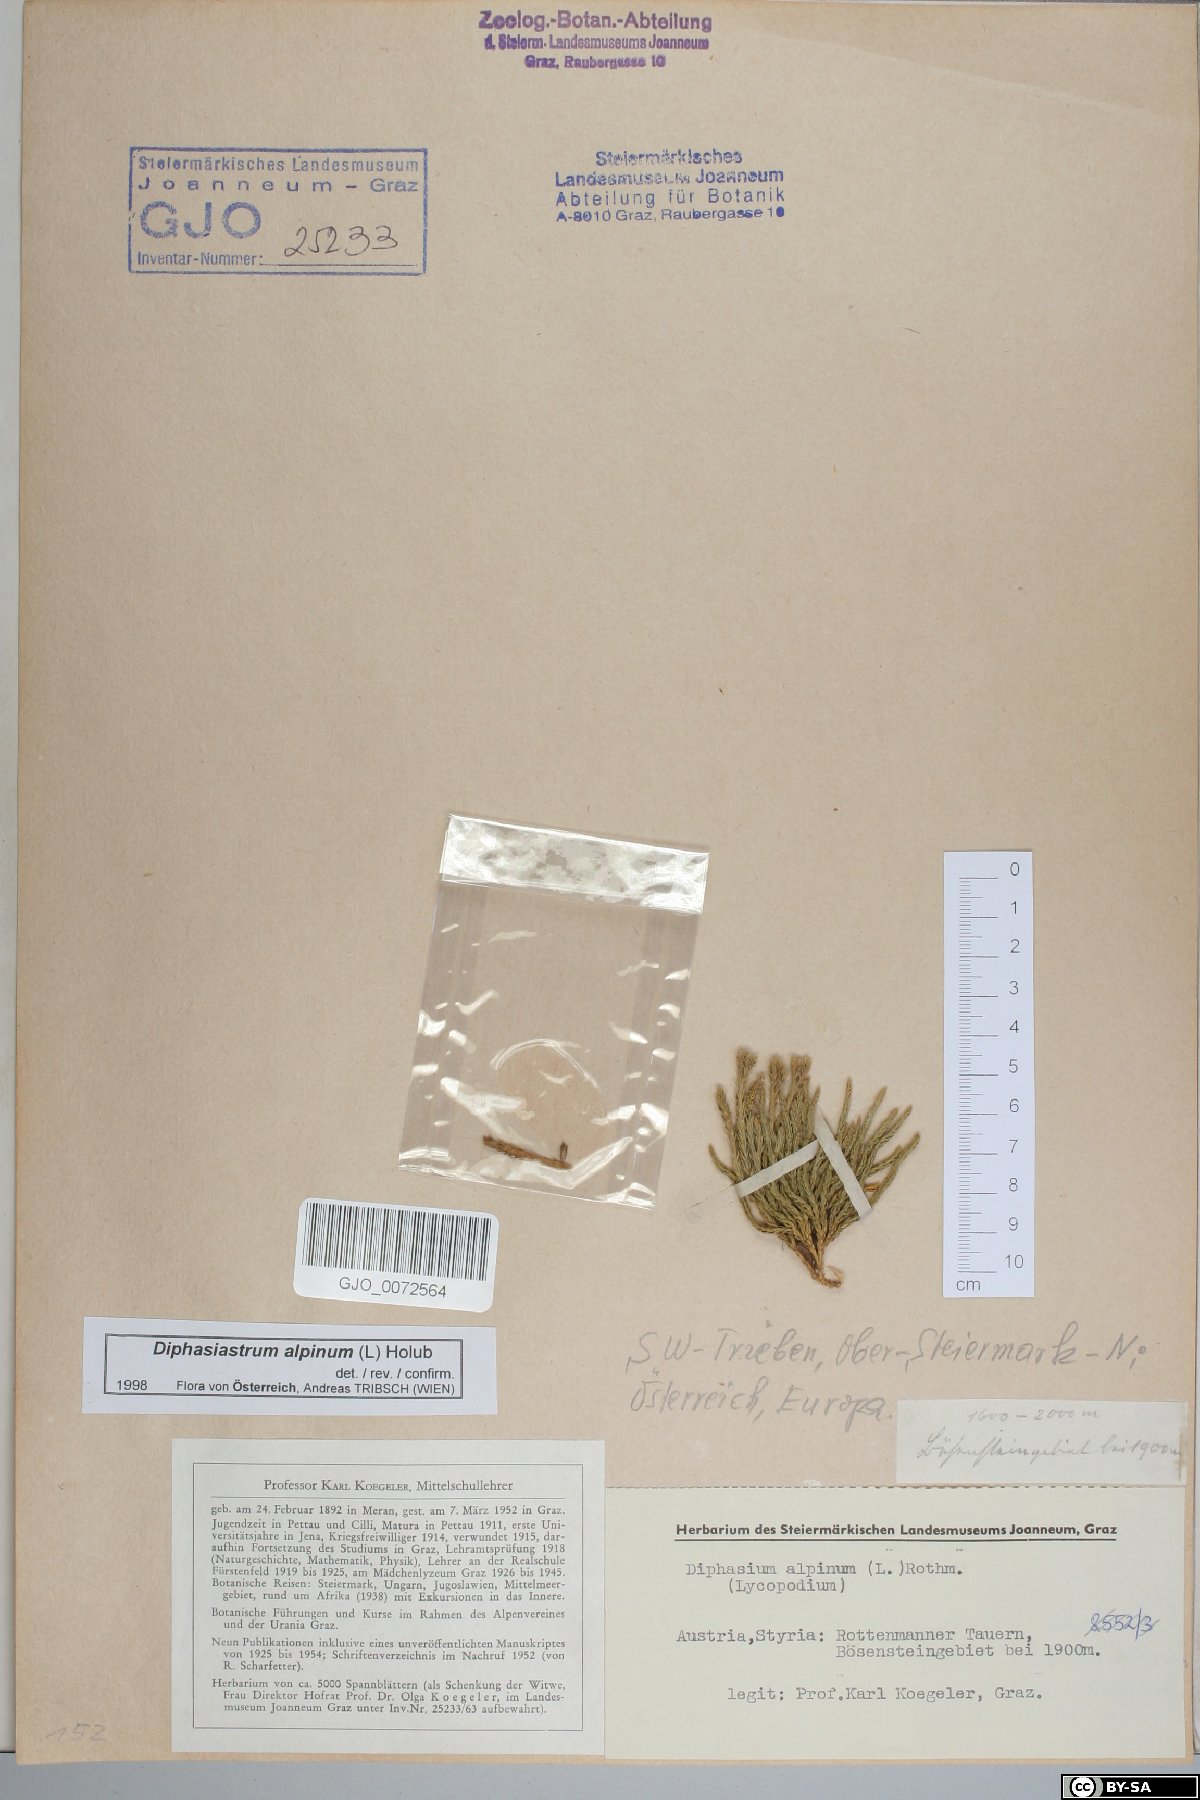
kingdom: Plantae
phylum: Tracheophyta
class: Lycopodiopsida
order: Lycopodiales
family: Lycopodiaceae
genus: Diphasiastrum
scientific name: Diphasiastrum alpinum
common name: Alpine clubmoss
